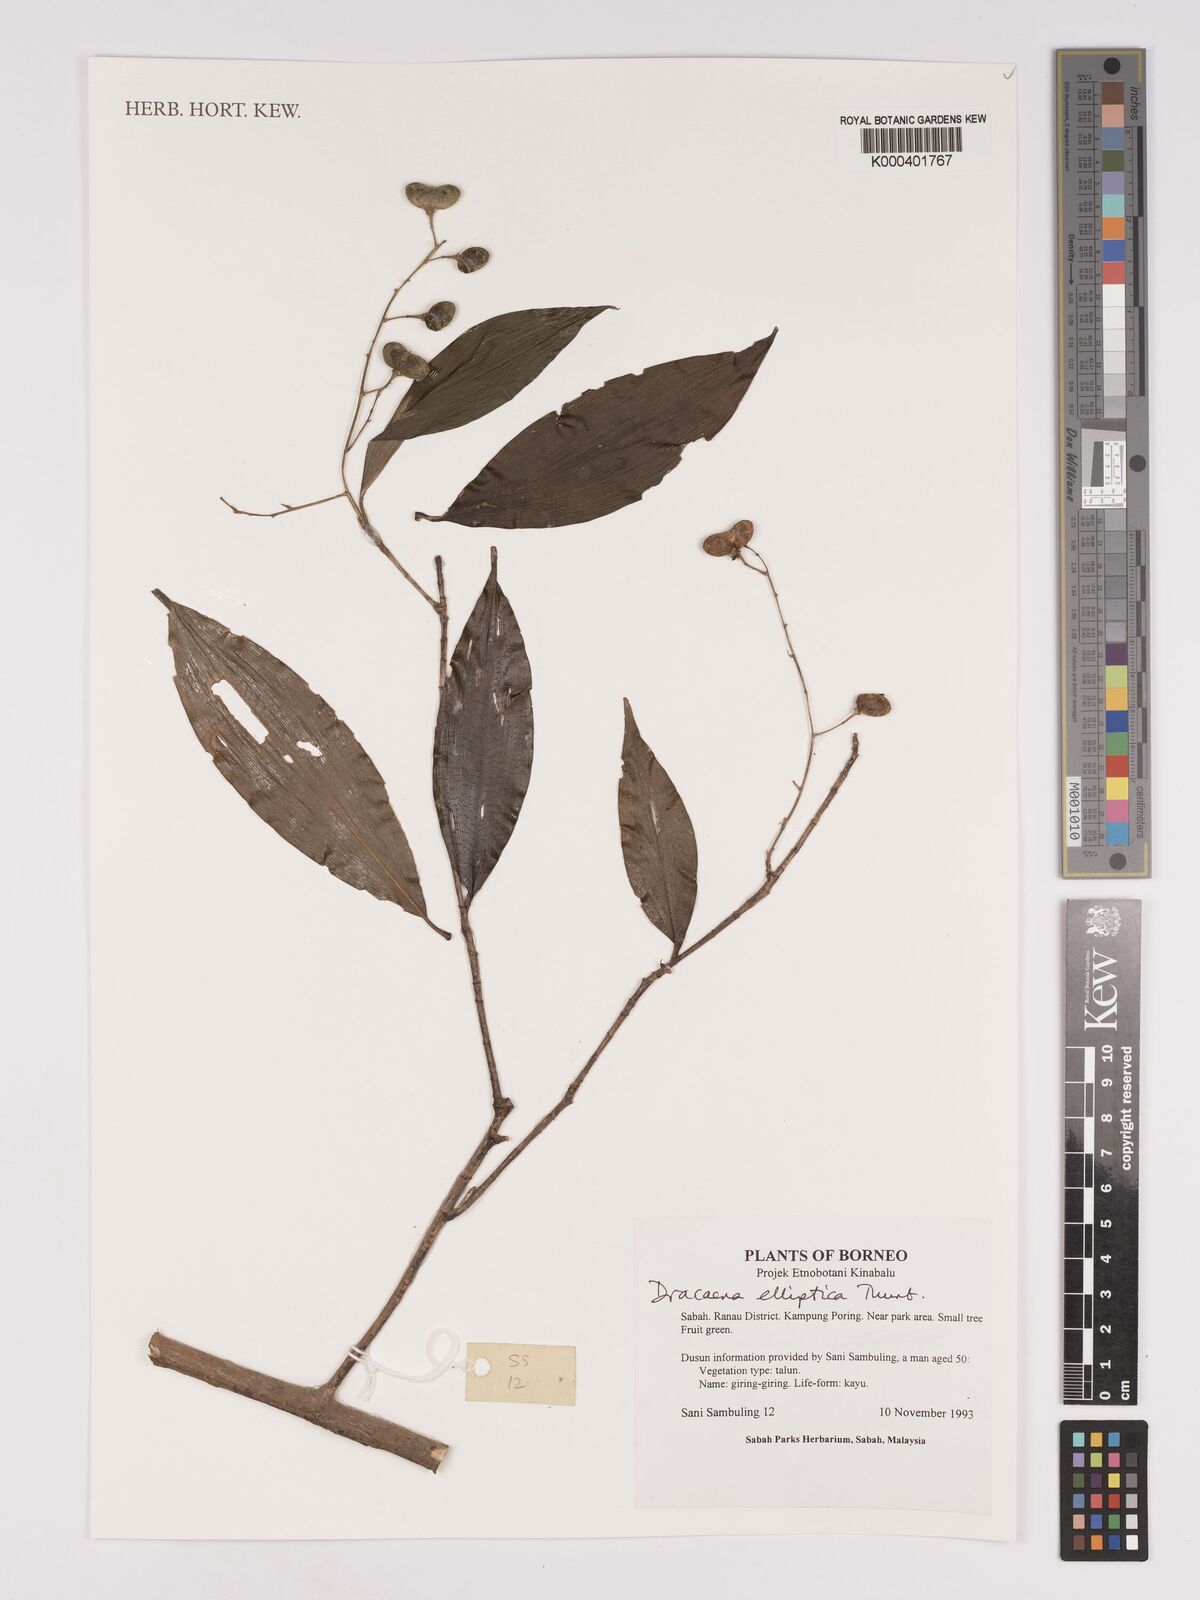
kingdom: Plantae
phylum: Tracheophyta
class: Liliopsida
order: Asparagales
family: Asparagaceae
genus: Dracaena
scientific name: Dracaena elliptica
